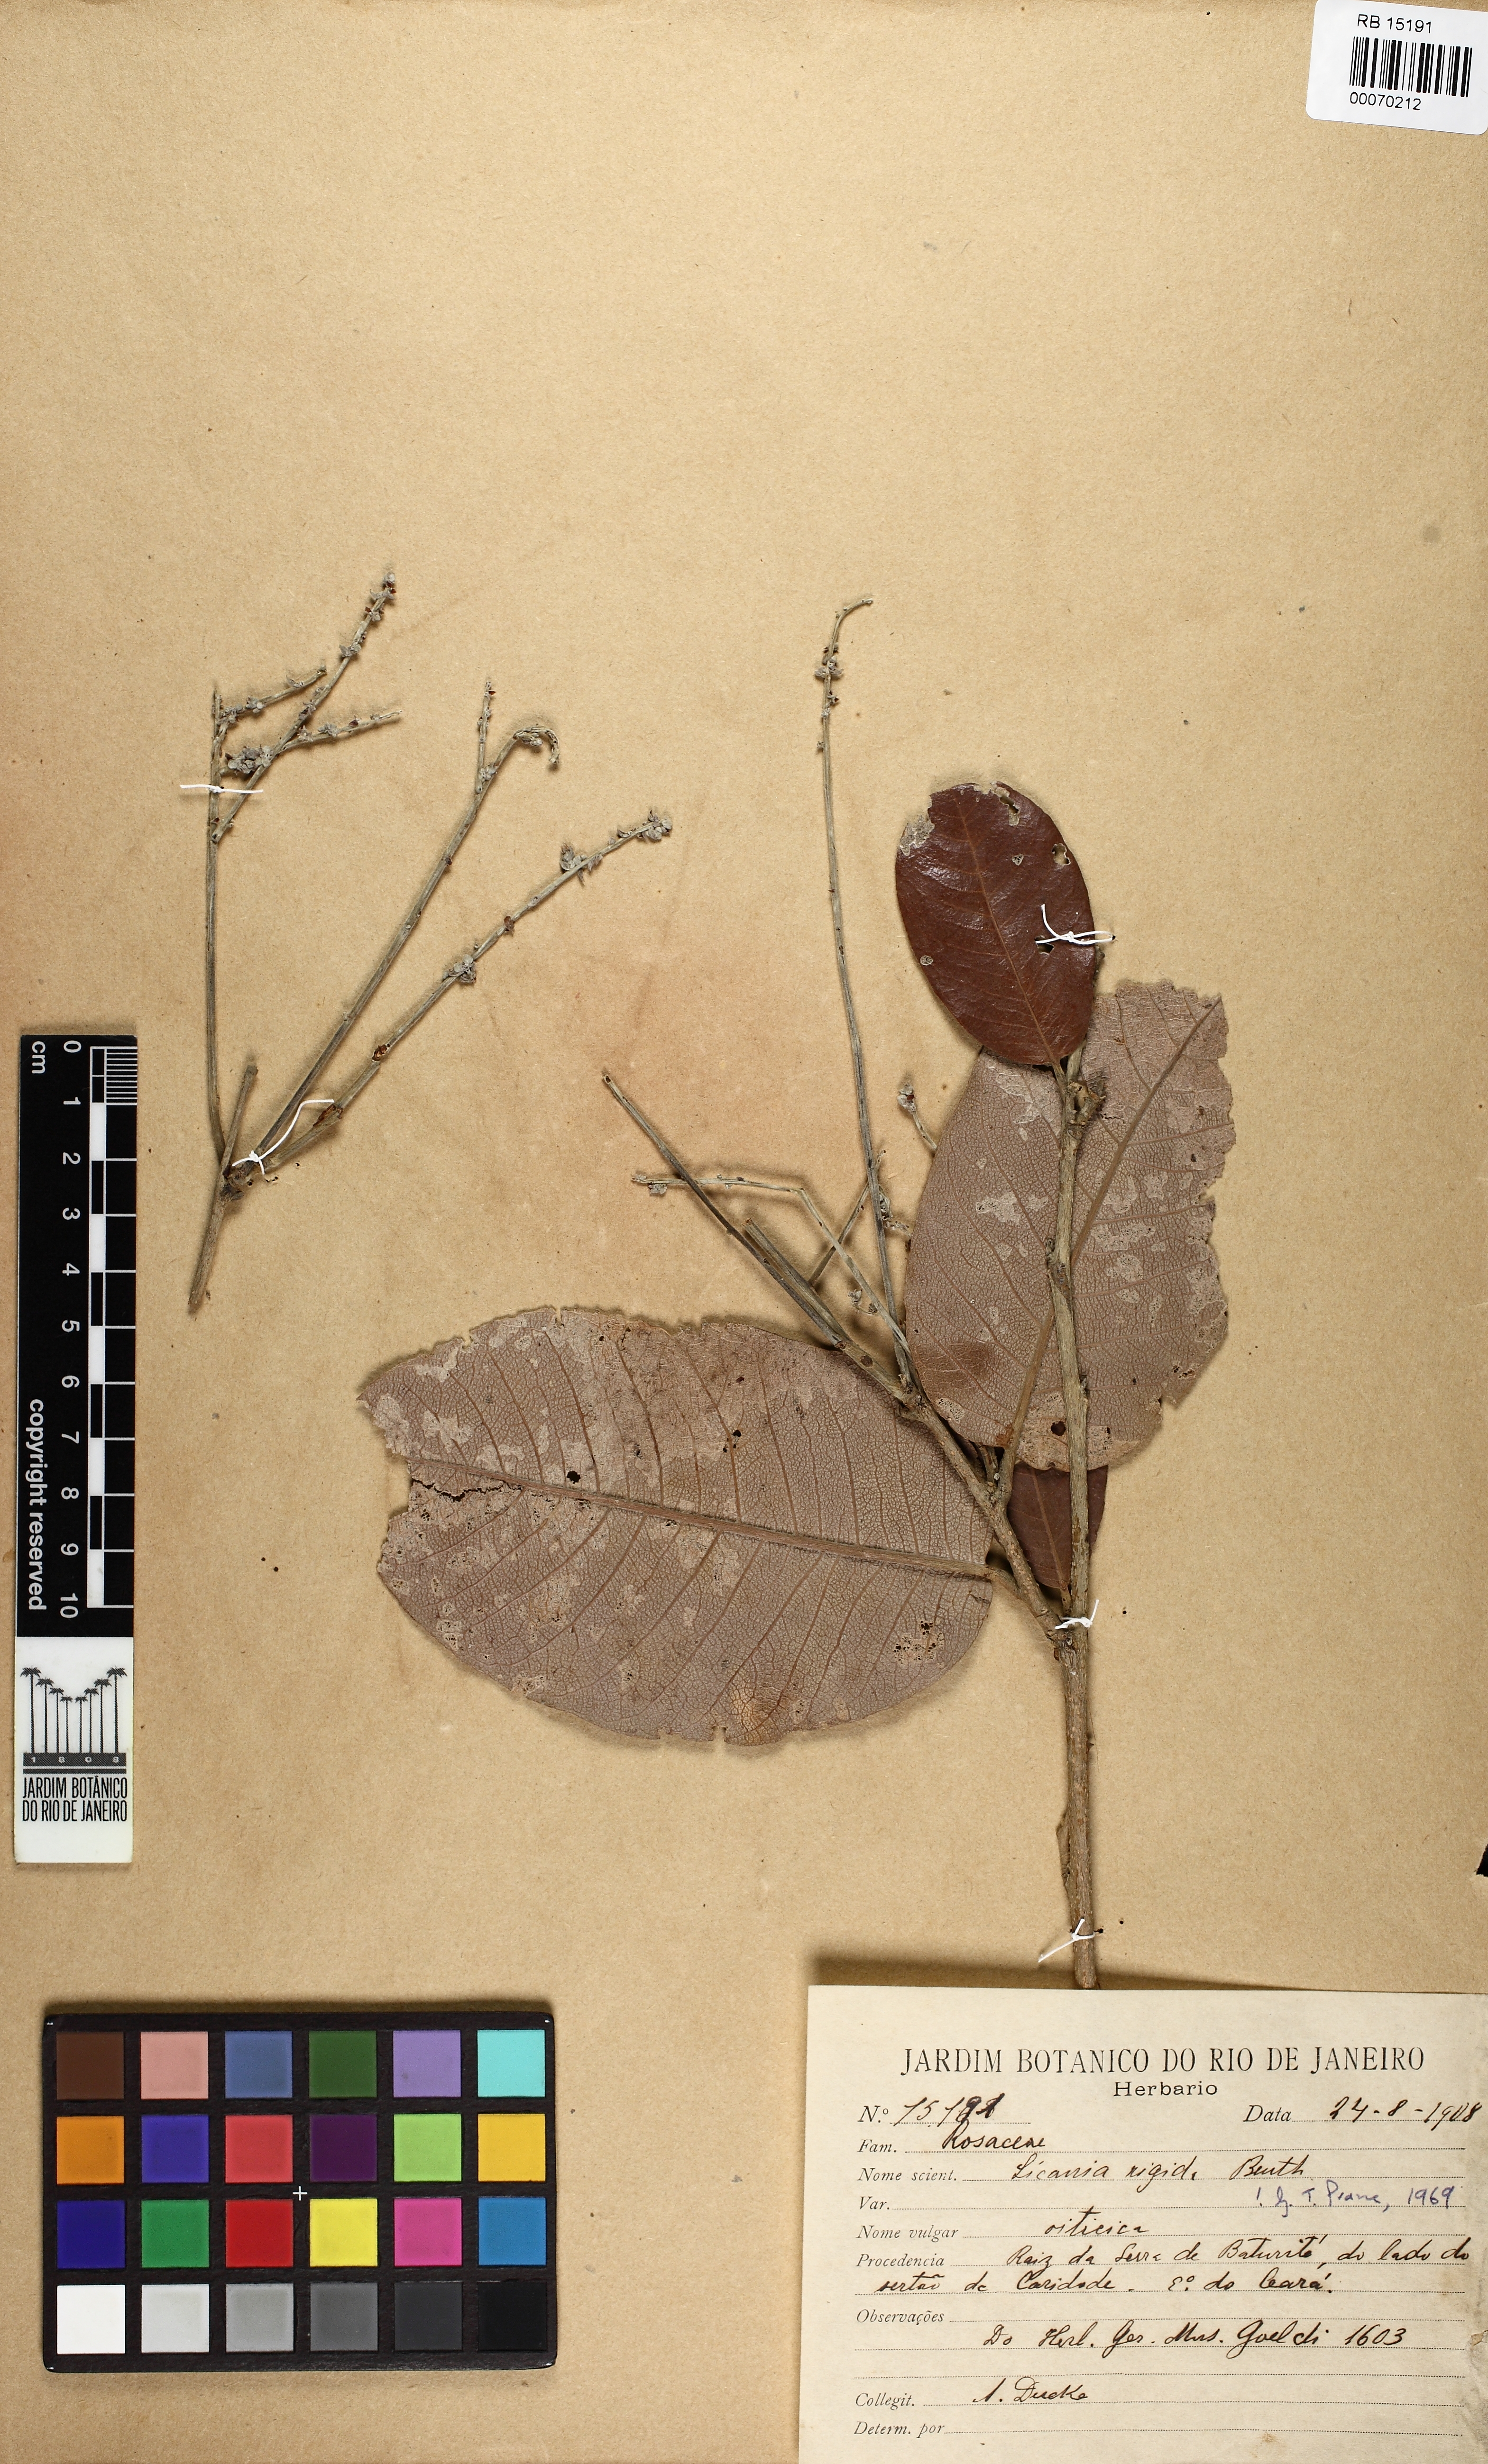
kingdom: Plantae
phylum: Tracheophyta
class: Magnoliopsida
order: Malpighiales
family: Chrysobalanaceae
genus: Microdesmia
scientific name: Microdesmia rigida
